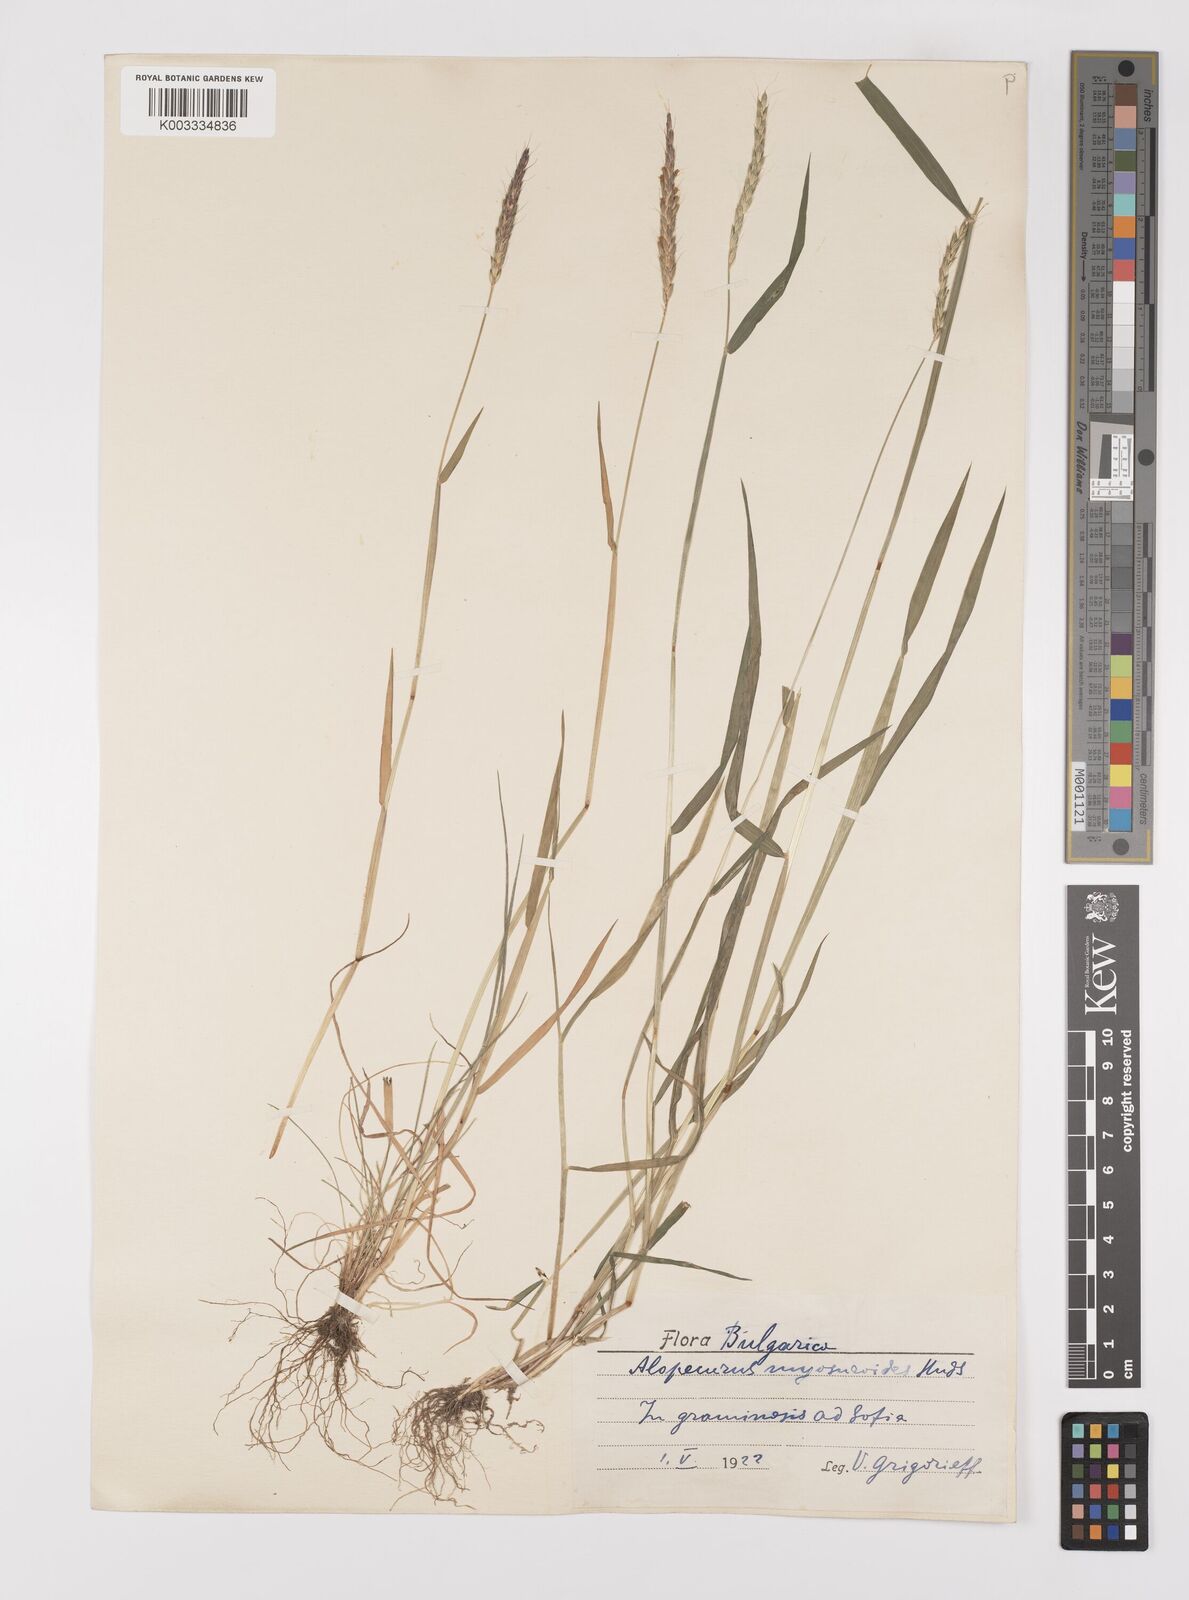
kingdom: Plantae
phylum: Tracheophyta
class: Liliopsida
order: Poales
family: Poaceae
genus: Alopecurus
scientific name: Alopecurus myosuroides
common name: Black-grass
